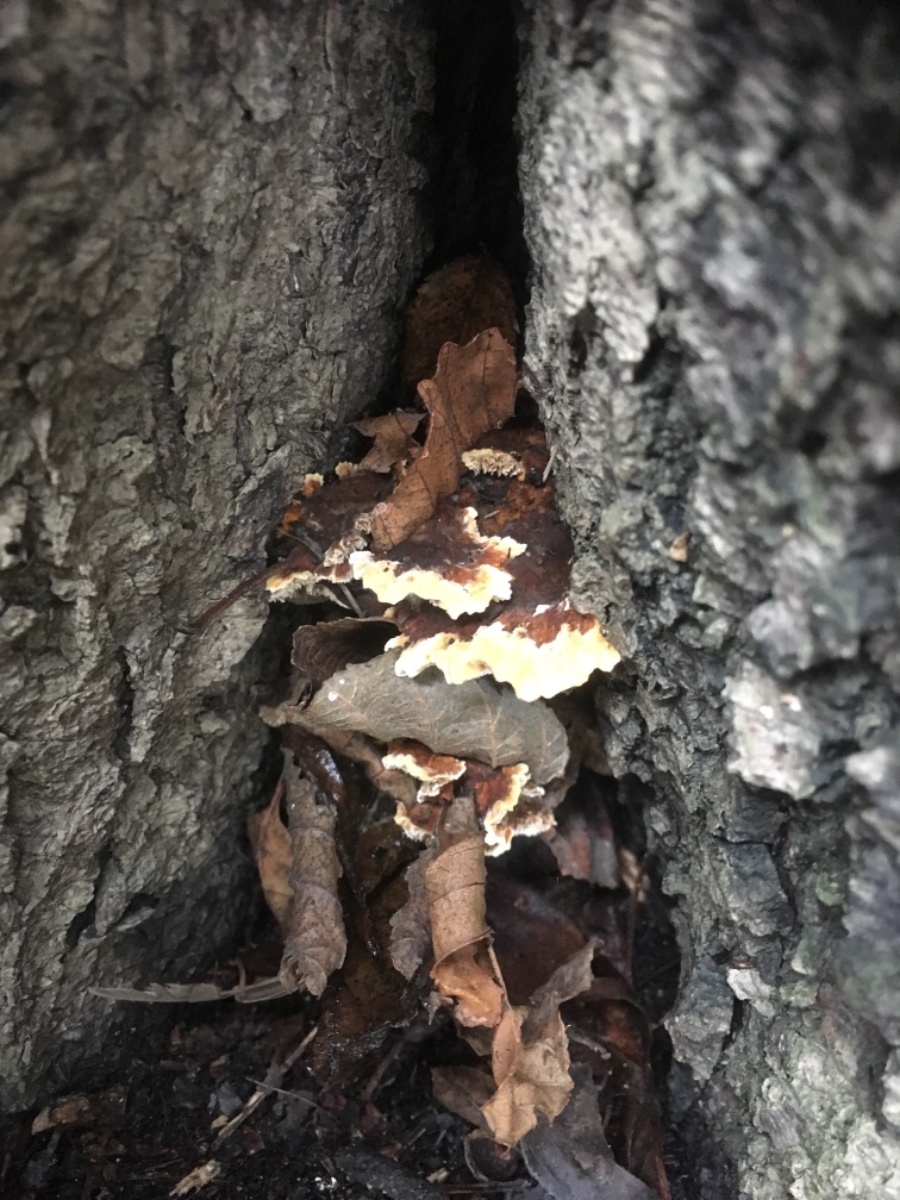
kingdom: Fungi
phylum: Basidiomycota
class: Agaricomycetes
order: Polyporales
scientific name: Polyporales
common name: poresvampordenen
